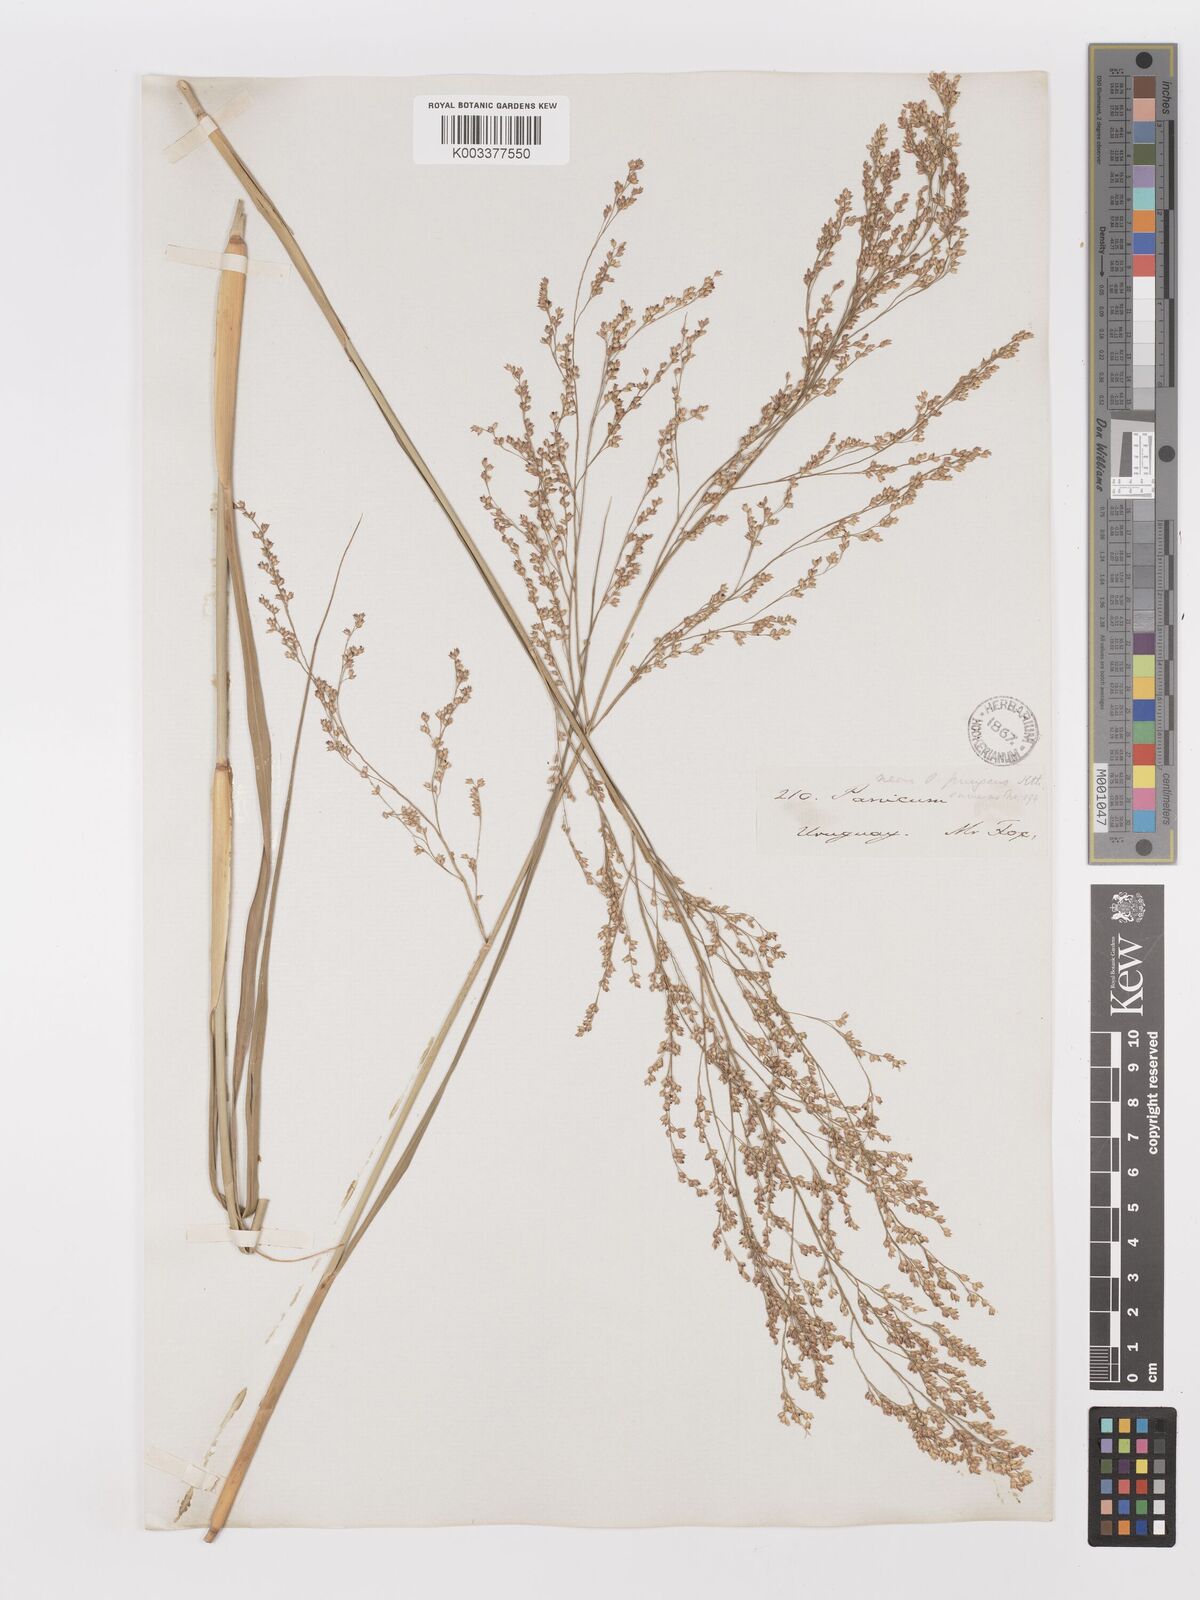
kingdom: Plantae
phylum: Tracheophyta
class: Liliopsida
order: Poales
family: Poaceae
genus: Panicum
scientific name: Panicum tricholaenoides
